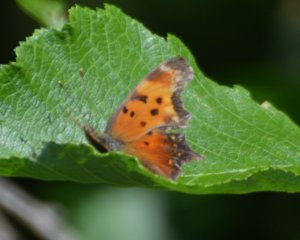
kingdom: Animalia
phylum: Arthropoda
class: Insecta
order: Lepidoptera
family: Nymphalidae
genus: Polygonia
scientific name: Polygonia progne
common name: Gray Comma
